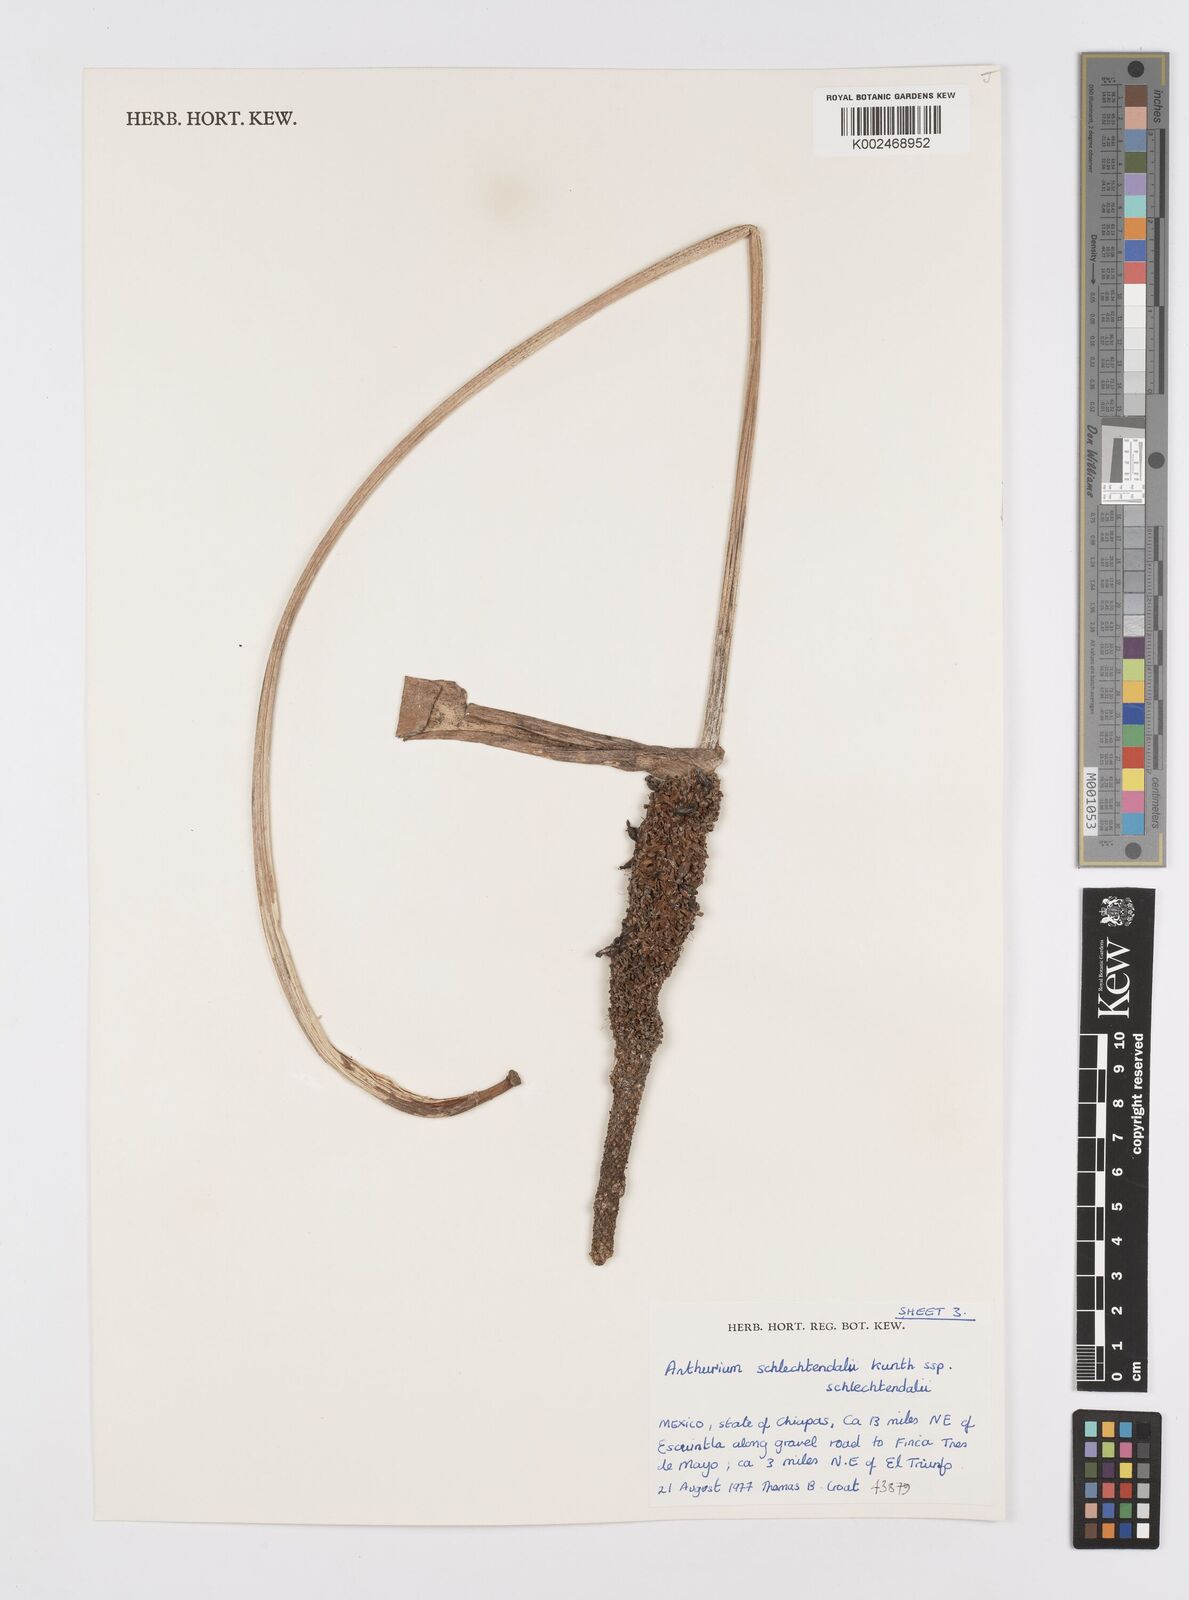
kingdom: Plantae
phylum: Tracheophyta
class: Liliopsida
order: Alismatales
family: Araceae
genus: Anthurium
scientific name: Anthurium schlechtendalii
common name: Laceleaf
